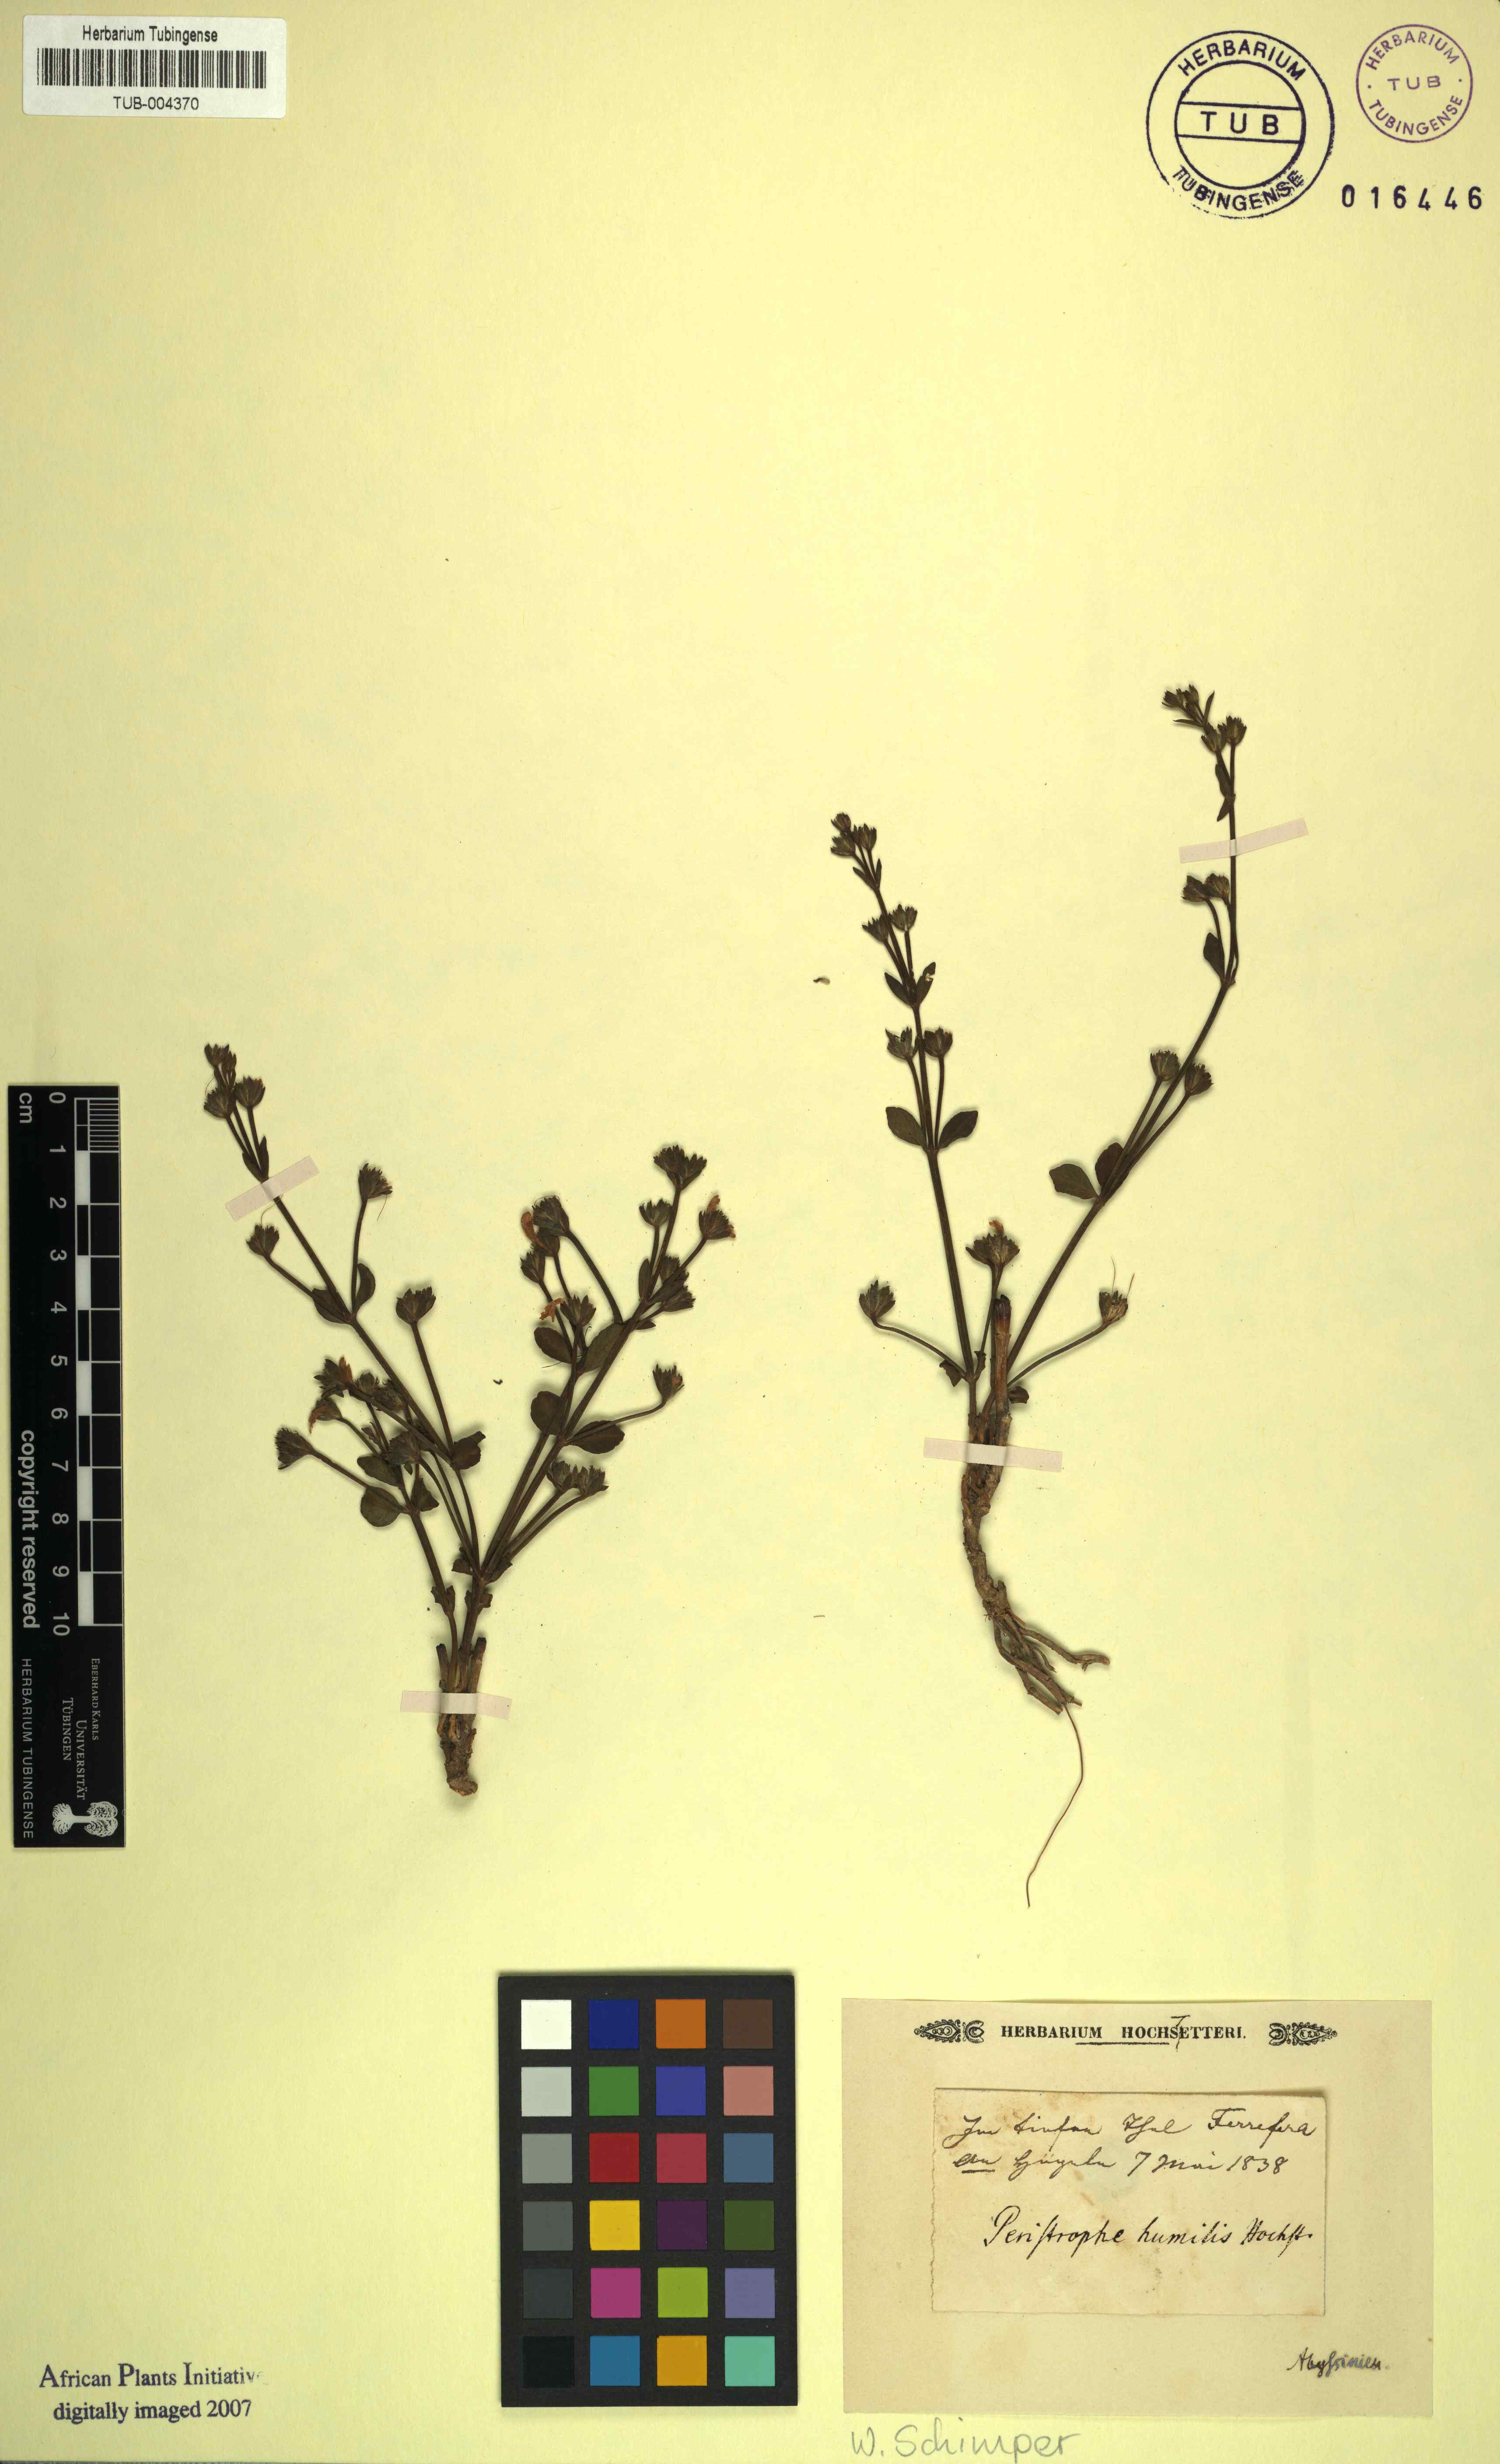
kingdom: Plantae
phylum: Tracheophyta
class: Magnoliopsida
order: Lamiales
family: Acanthaceae
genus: Dicliptera
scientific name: Dicliptera
